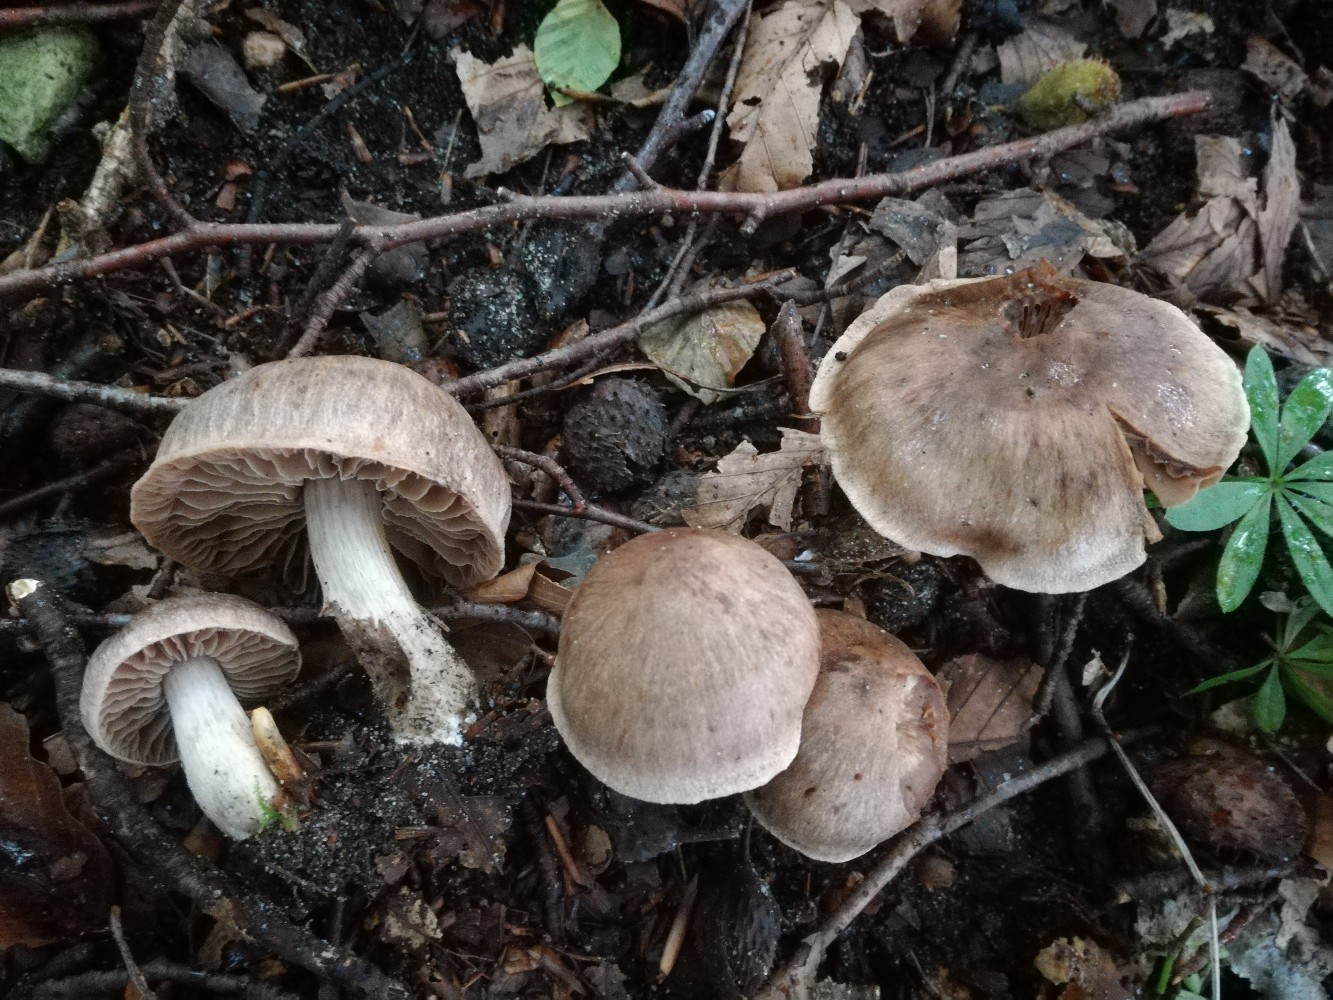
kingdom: Fungi
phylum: Basidiomycota
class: Agaricomycetes
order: Agaricales
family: Cortinariaceae
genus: Cortinarius
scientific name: Cortinarius exsularis
